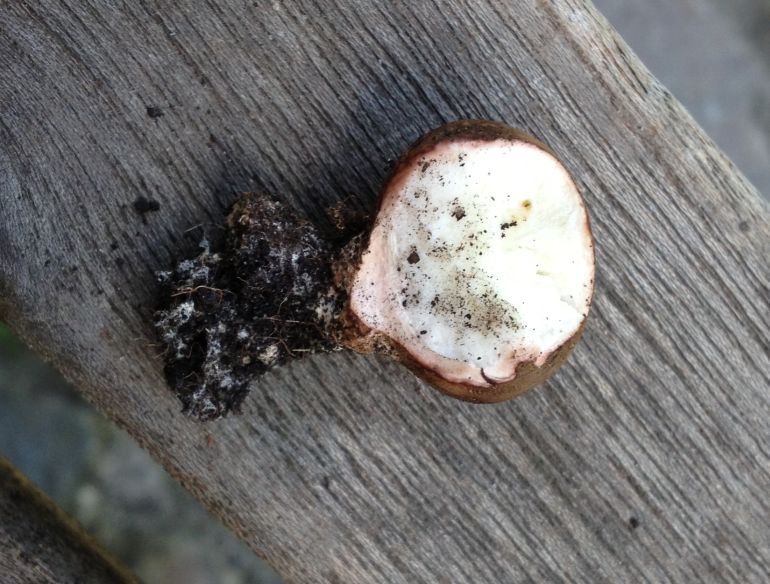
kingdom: Fungi
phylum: Basidiomycota
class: Agaricomycetes
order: Boletales
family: Sclerodermataceae
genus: Scleroderma
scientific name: Scleroderma verrucosum
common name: stilket bruskbold
